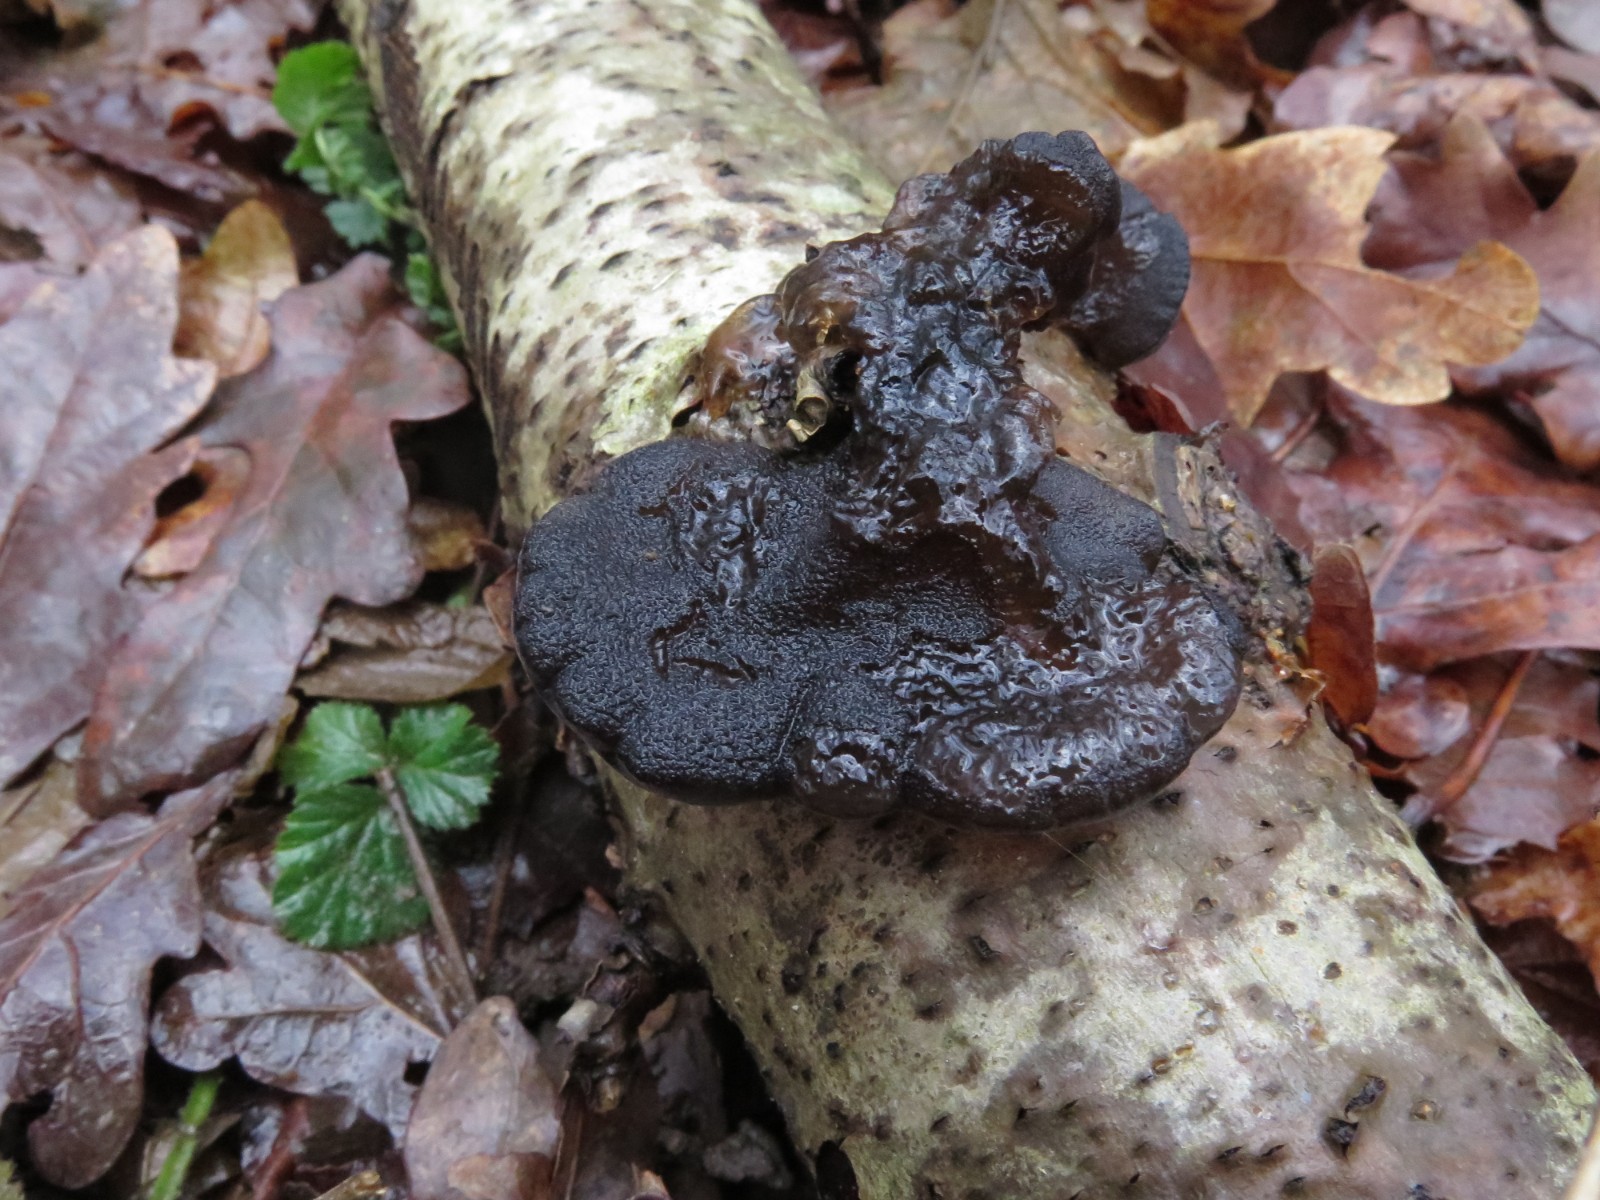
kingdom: Fungi
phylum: Basidiomycota
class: Agaricomycetes
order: Auriculariales
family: Auriculariaceae
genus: Exidia
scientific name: Exidia glandulosa
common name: ege-bævretop
